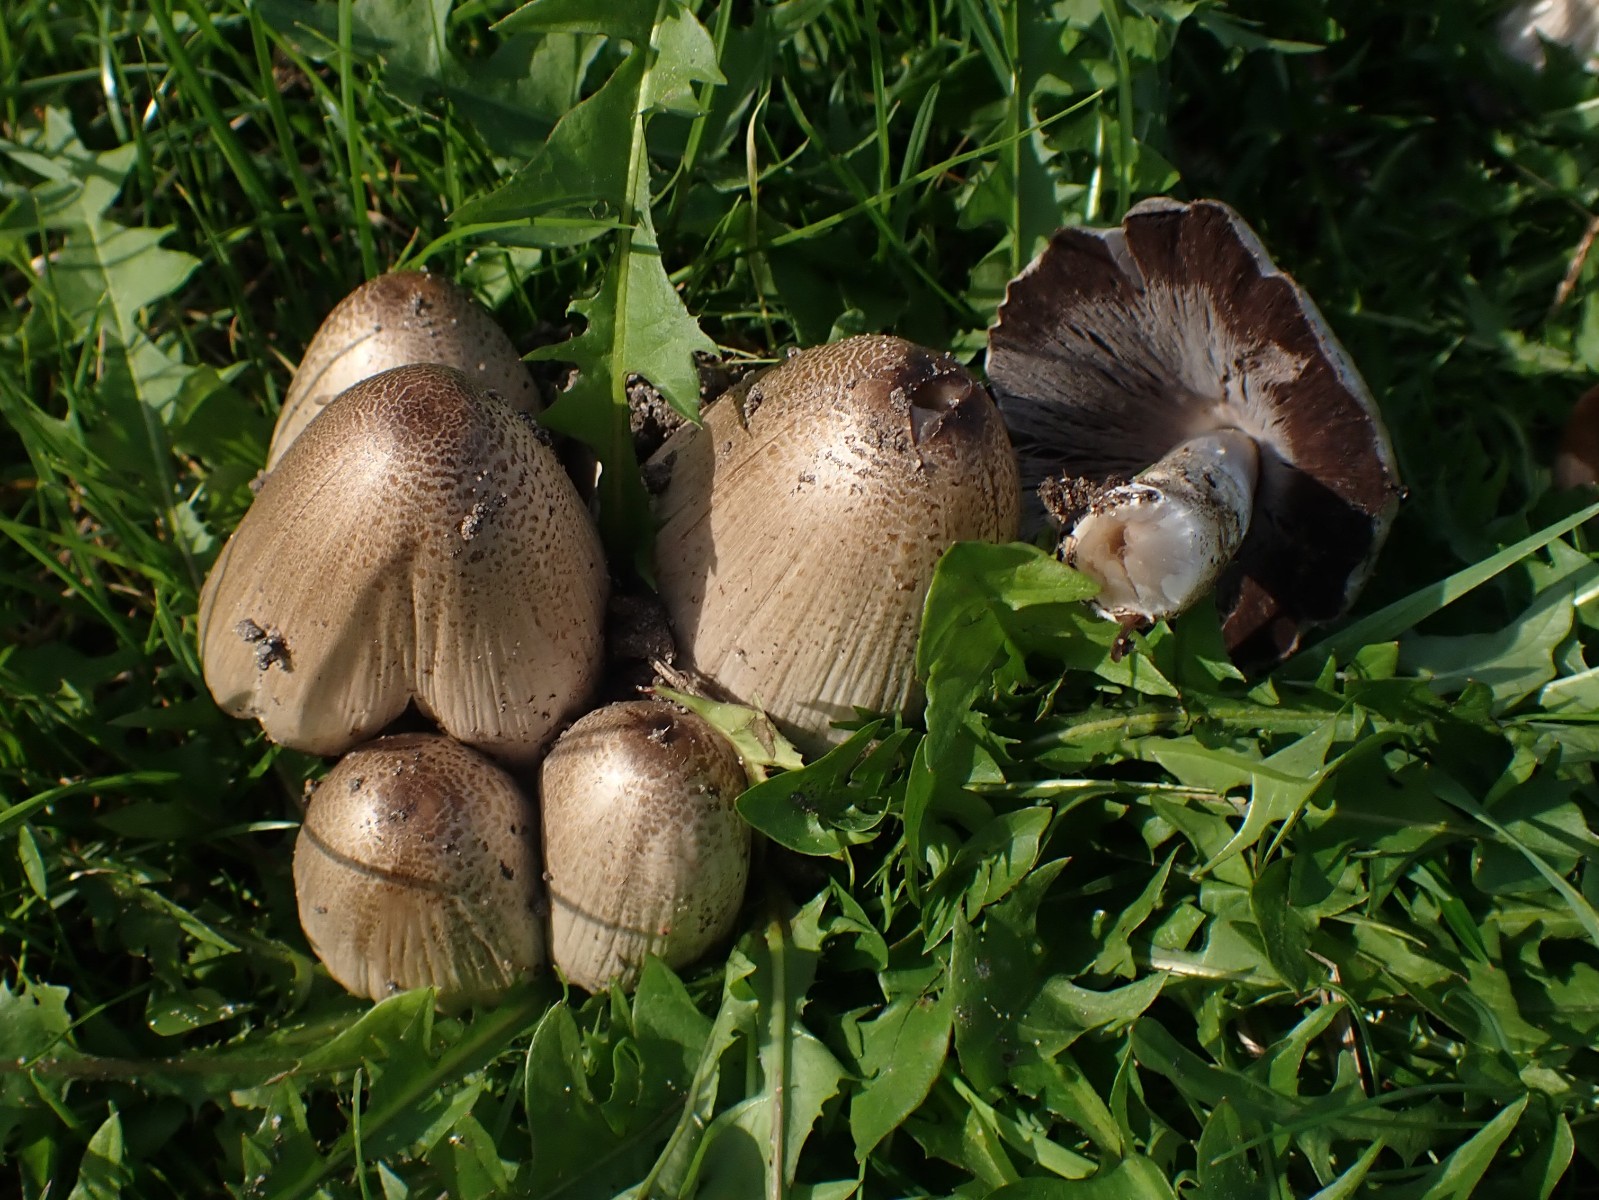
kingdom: Fungi
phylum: Basidiomycota
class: Agaricomycetes
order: Agaricales
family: Psathyrellaceae
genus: Coprinopsis
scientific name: Coprinopsis
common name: blækhat
